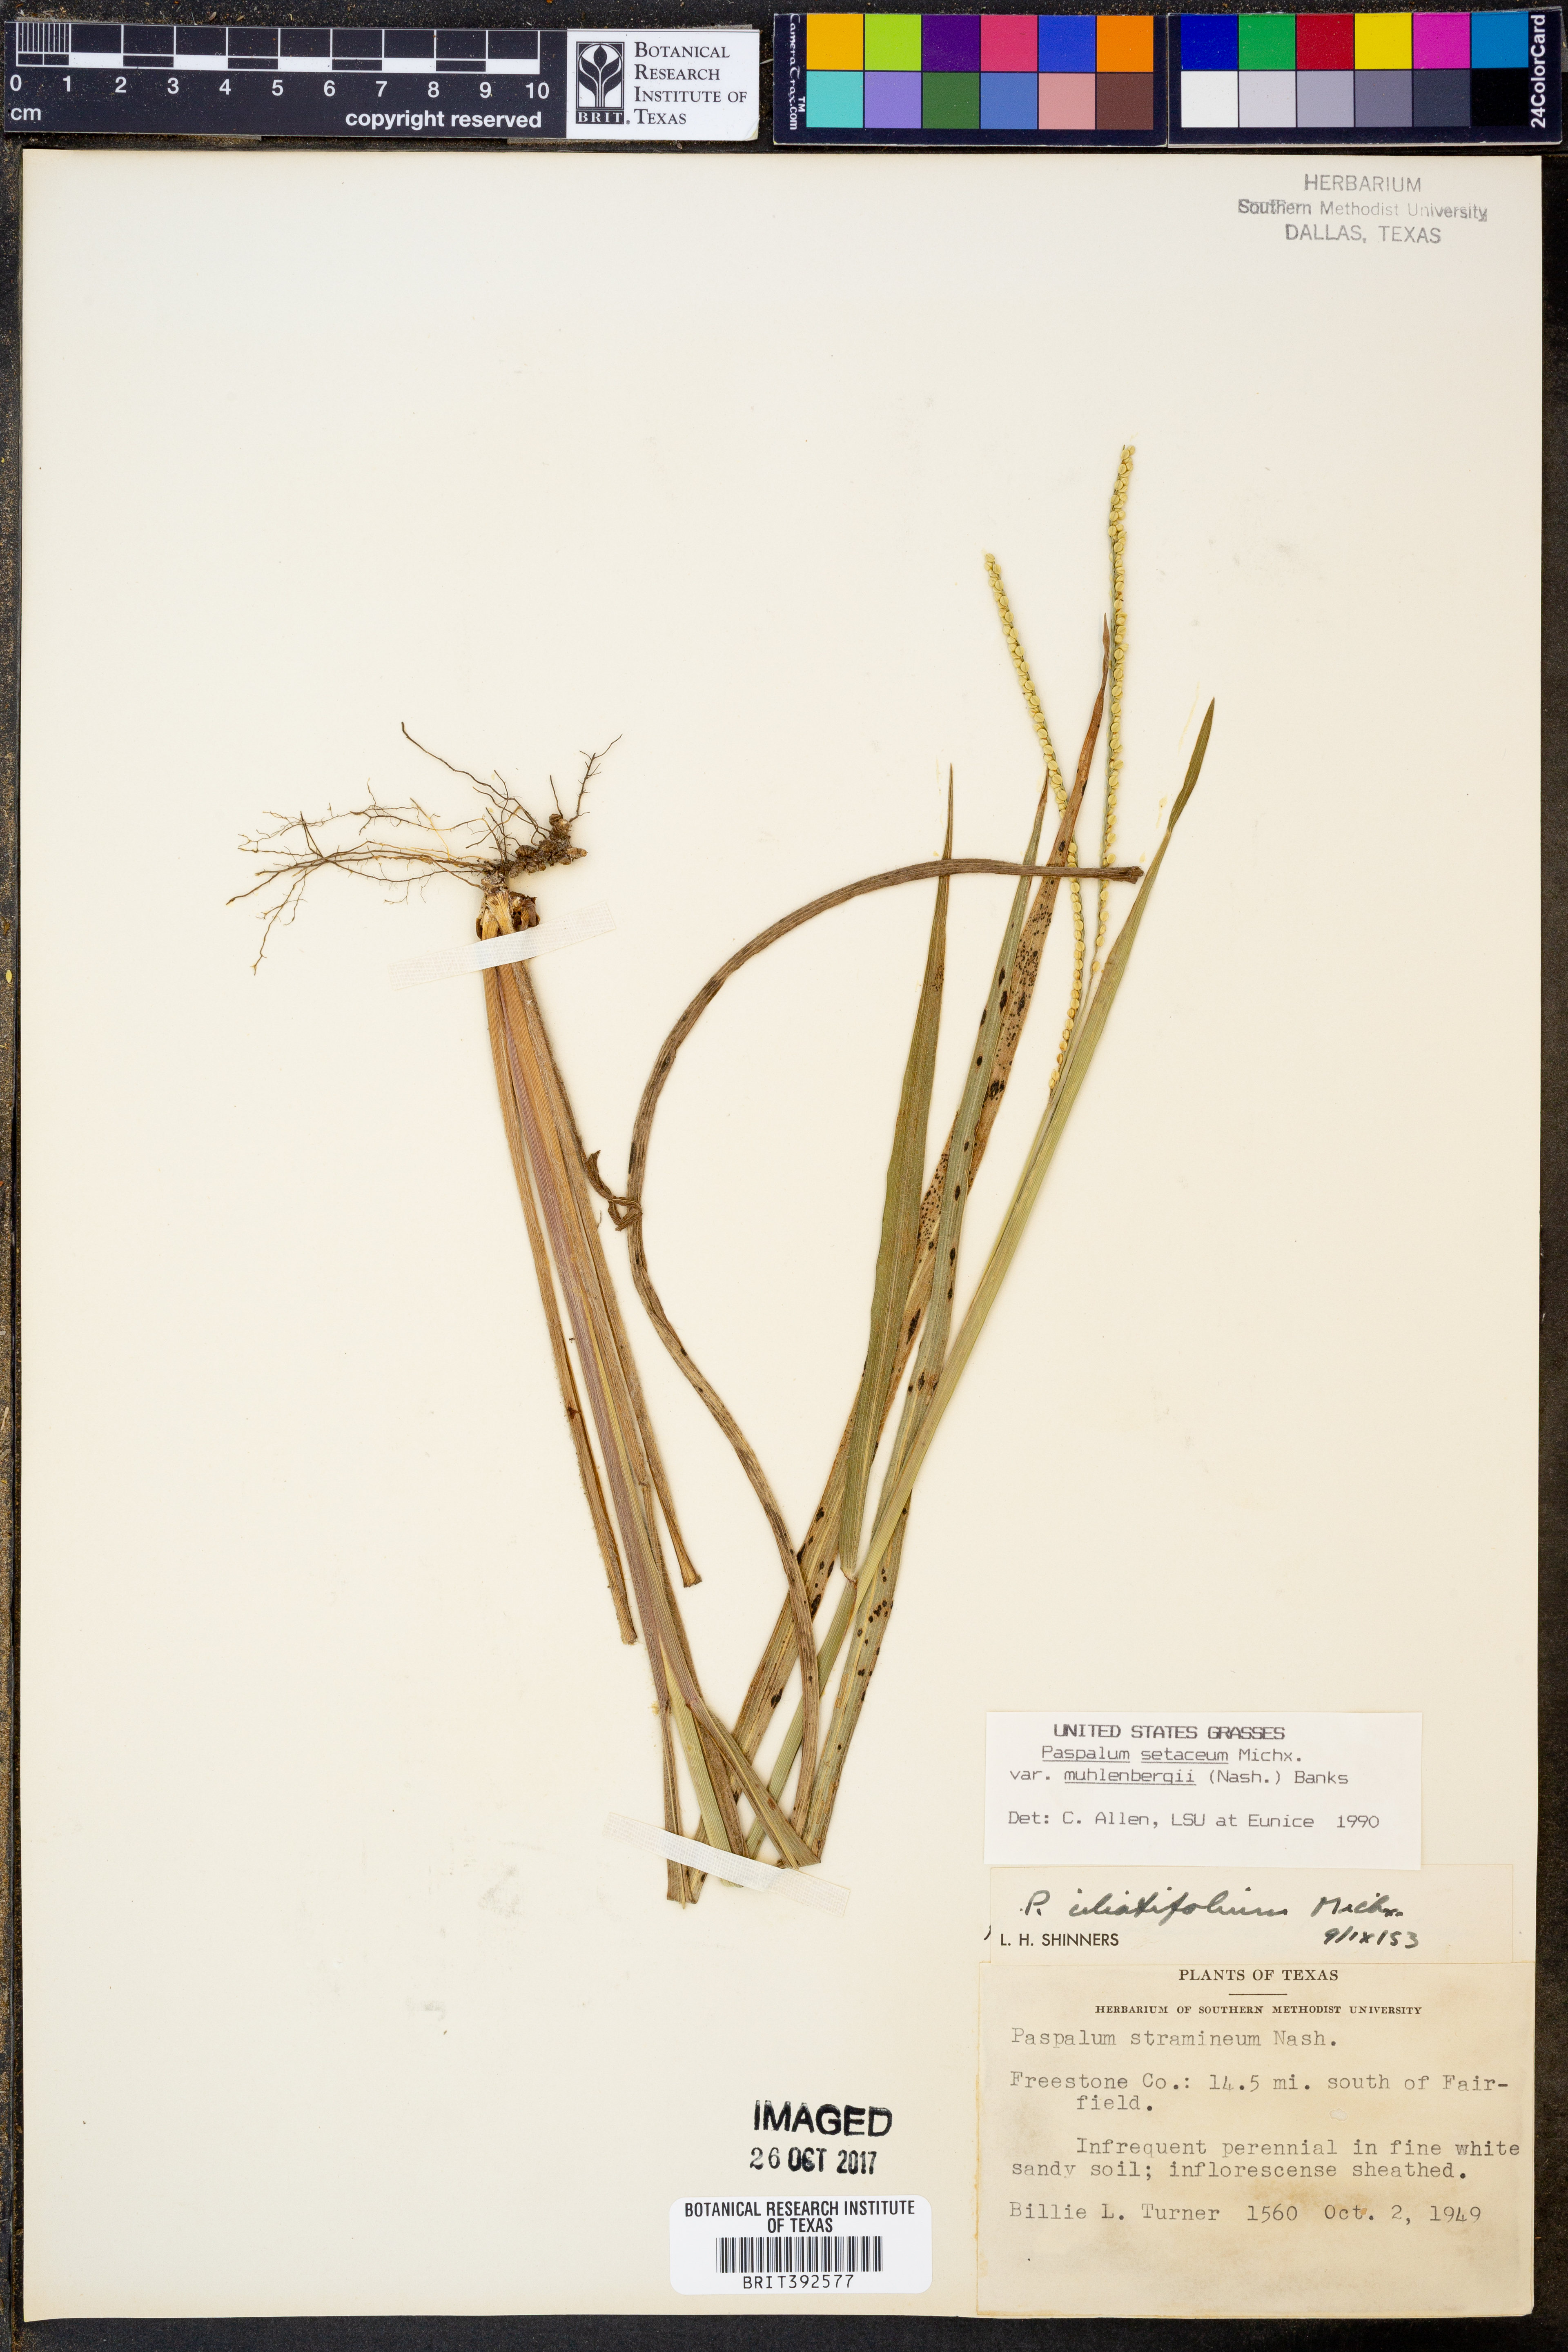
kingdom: Plantae
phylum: Tracheophyta
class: Liliopsida
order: Poales
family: Poaceae
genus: Paspalum
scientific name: Paspalum setaceum
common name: Slender paspalum
